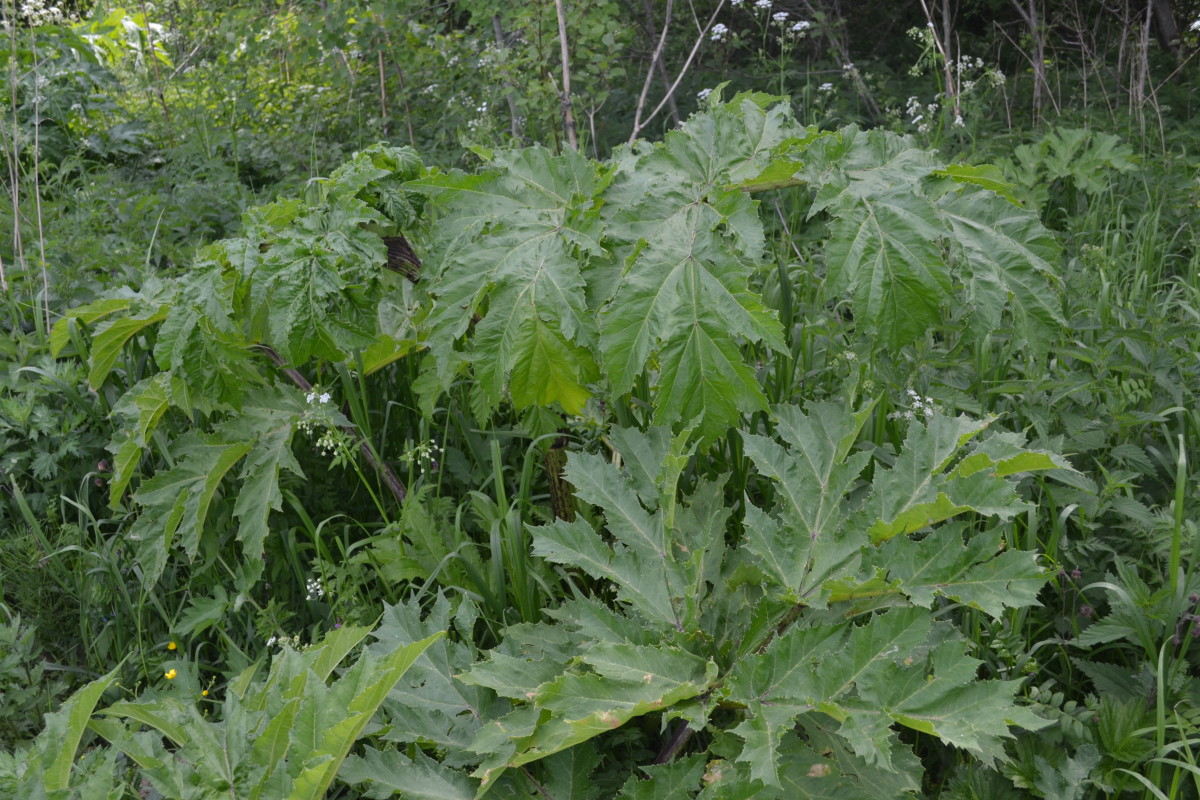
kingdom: Plantae
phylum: Tracheophyta
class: Magnoliopsida
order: Apiales
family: Apiaceae
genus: Heracleum
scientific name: Heracleum sosnowskyi
